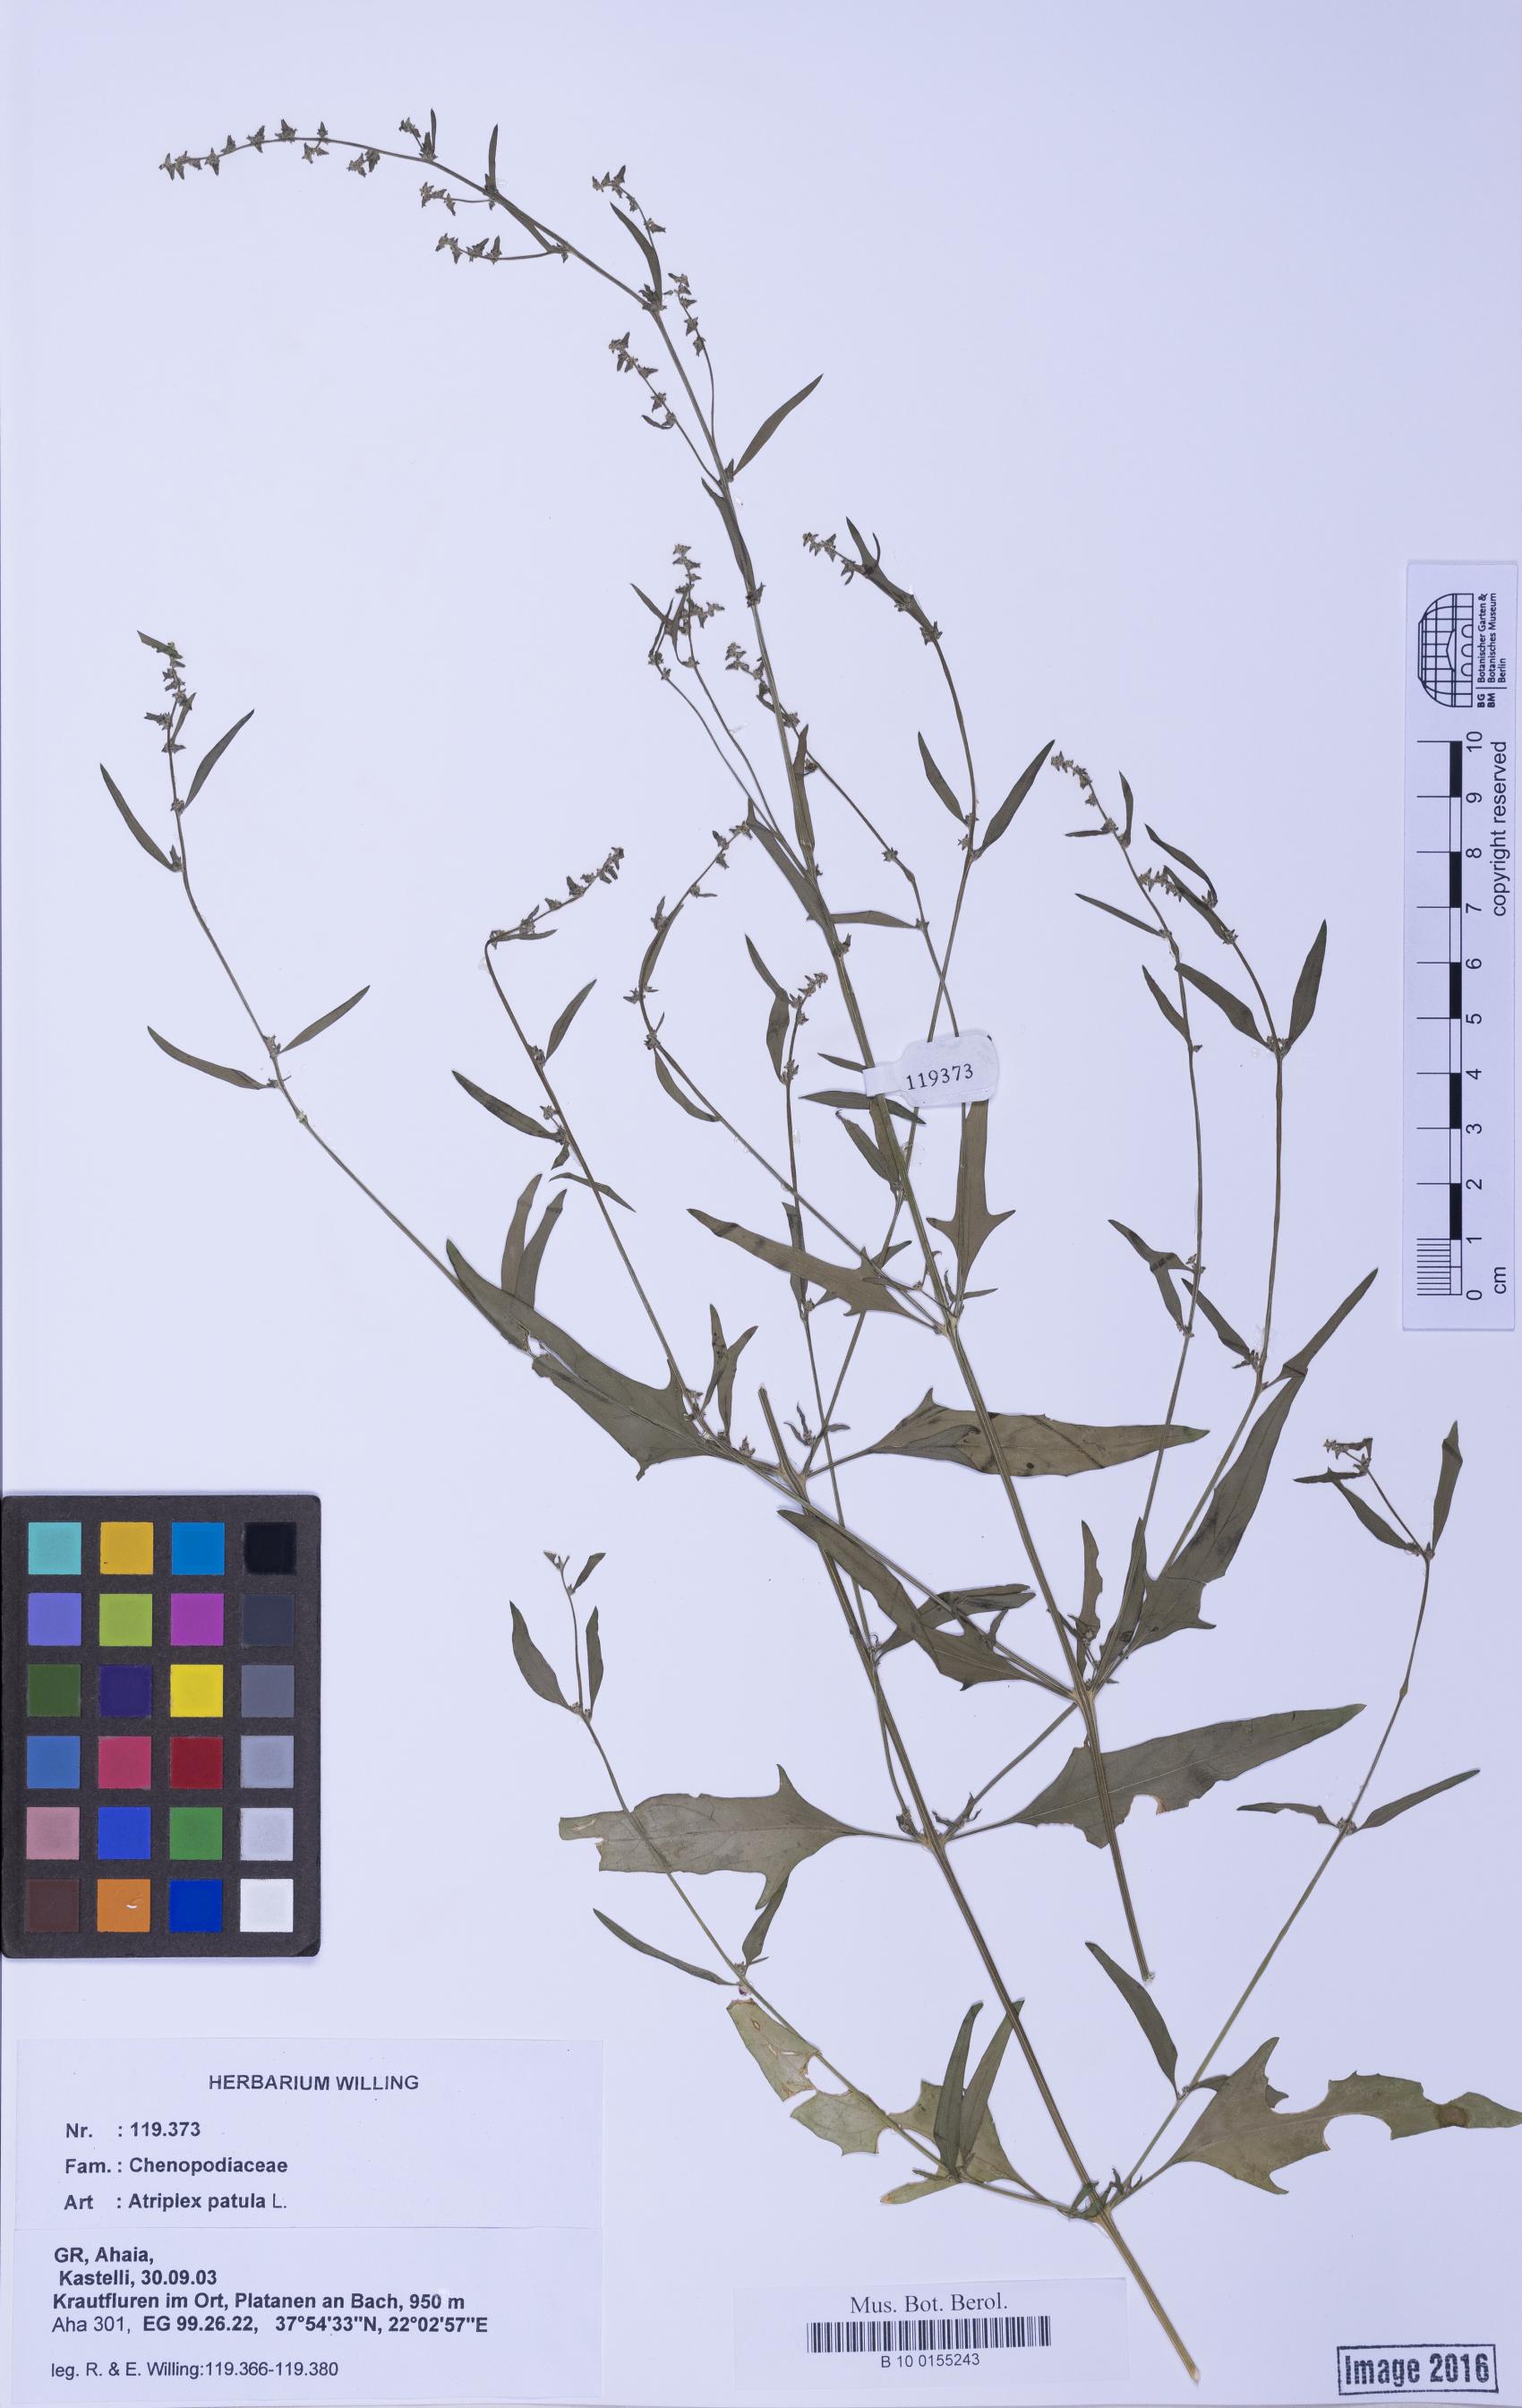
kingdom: Plantae
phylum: Tracheophyta
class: Magnoliopsida
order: Caryophyllales
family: Amaranthaceae
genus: Atriplex
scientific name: Atriplex prostrata
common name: Spear-leaved orache
